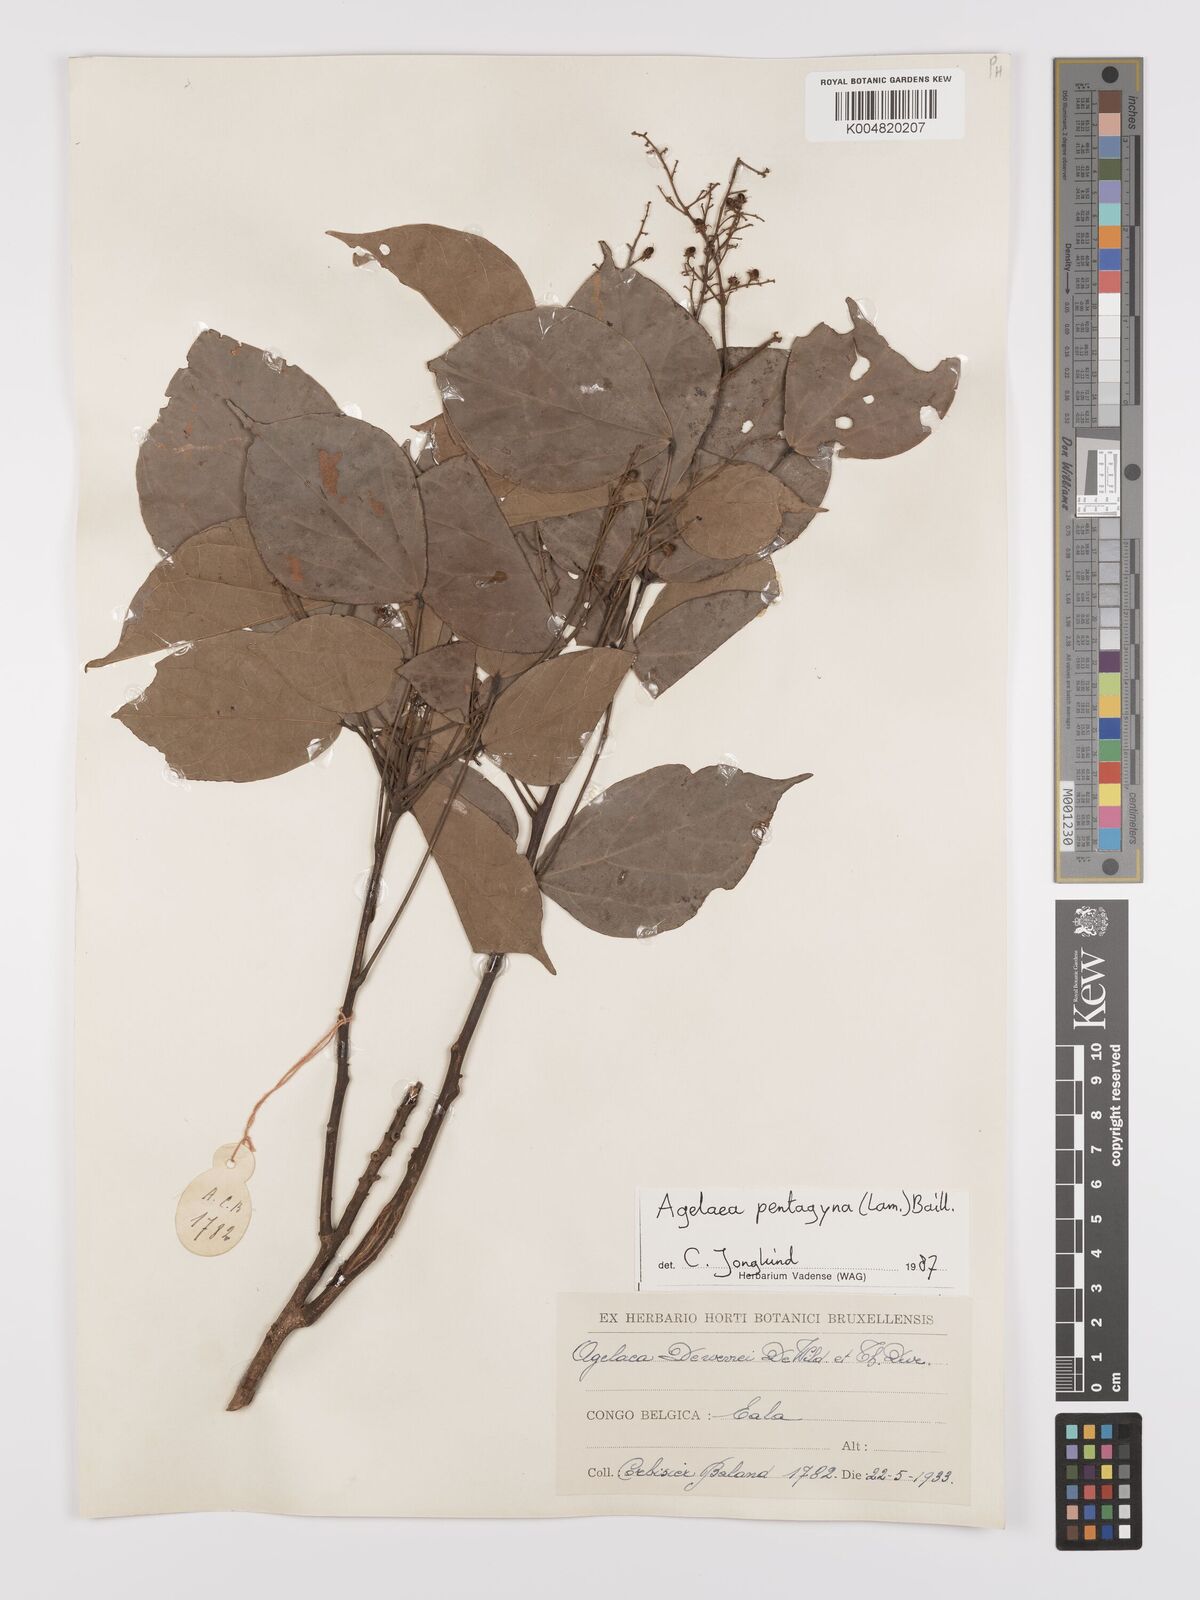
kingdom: Plantae
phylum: Tracheophyta
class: Magnoliopsida
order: Oxalidales
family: Connaraceae
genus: Agelaea
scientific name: Agelaea pentagyna
